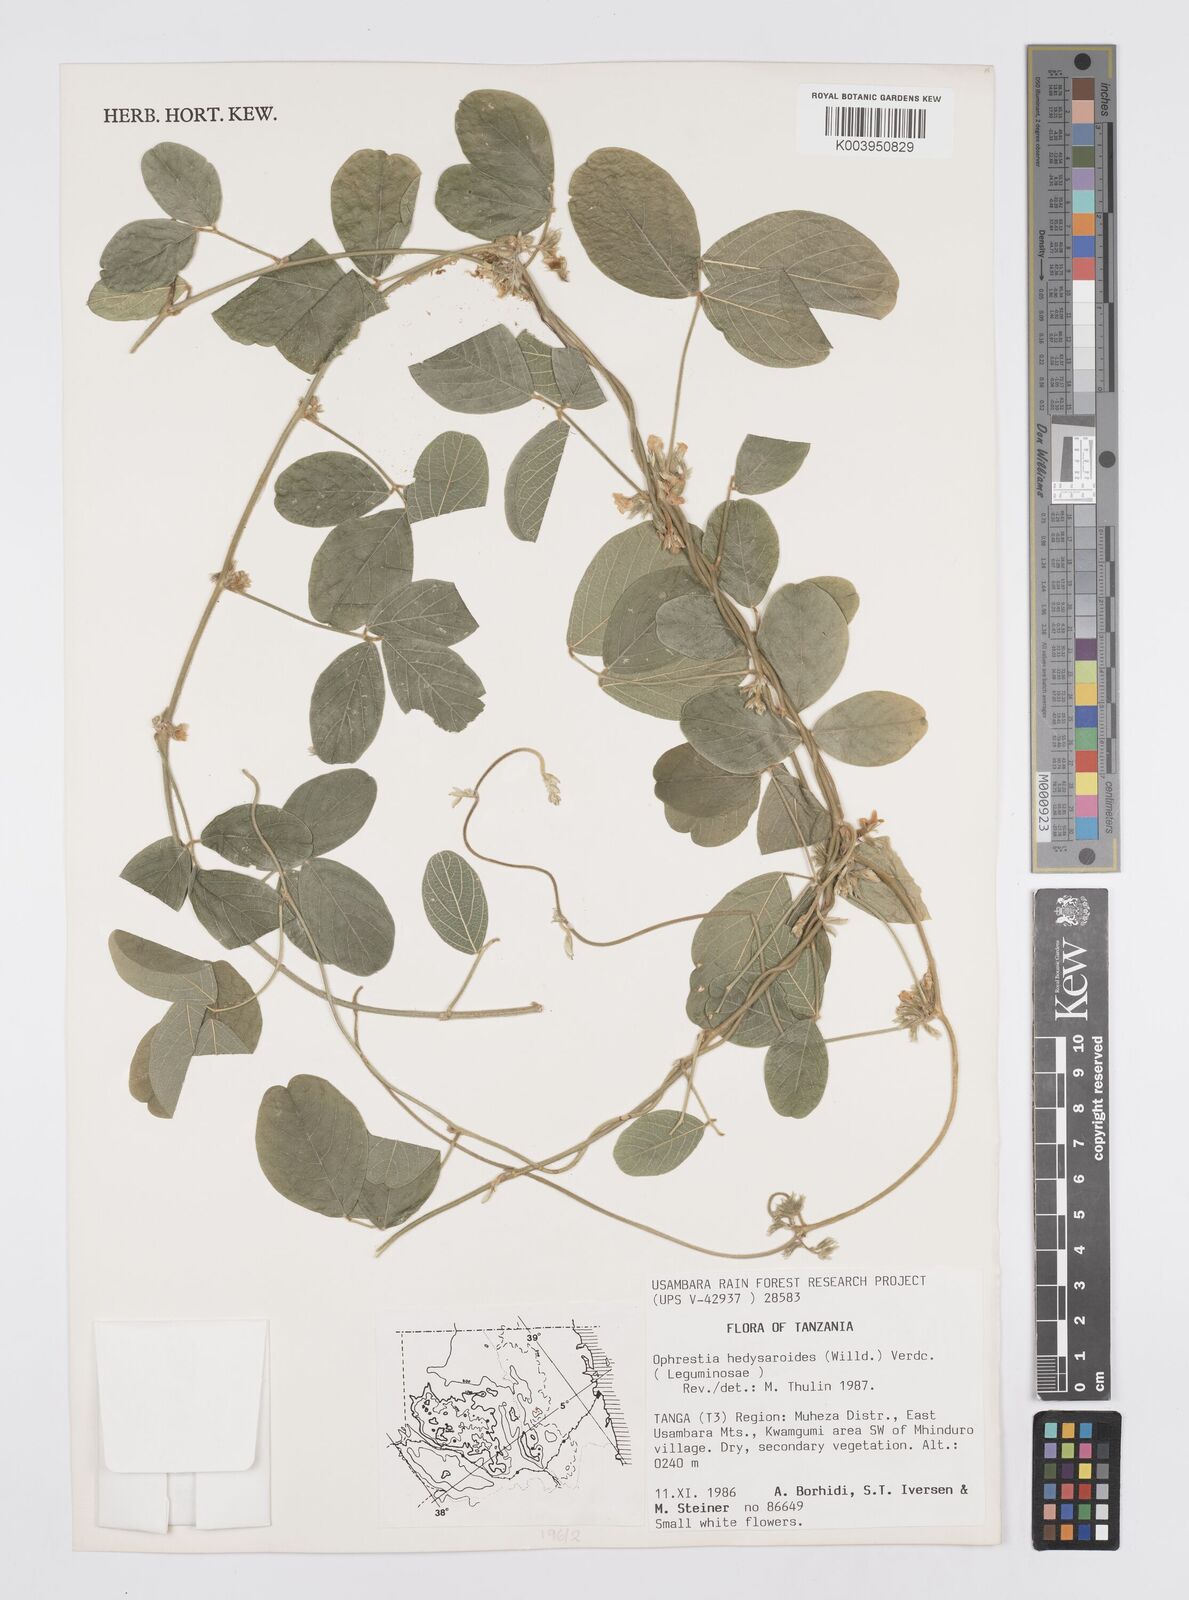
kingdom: Plantae
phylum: Tracheophyta
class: Magnoliopsida
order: Fabales
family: Fabaceae
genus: Ophrestia
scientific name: Ophrestia hedysaroides
